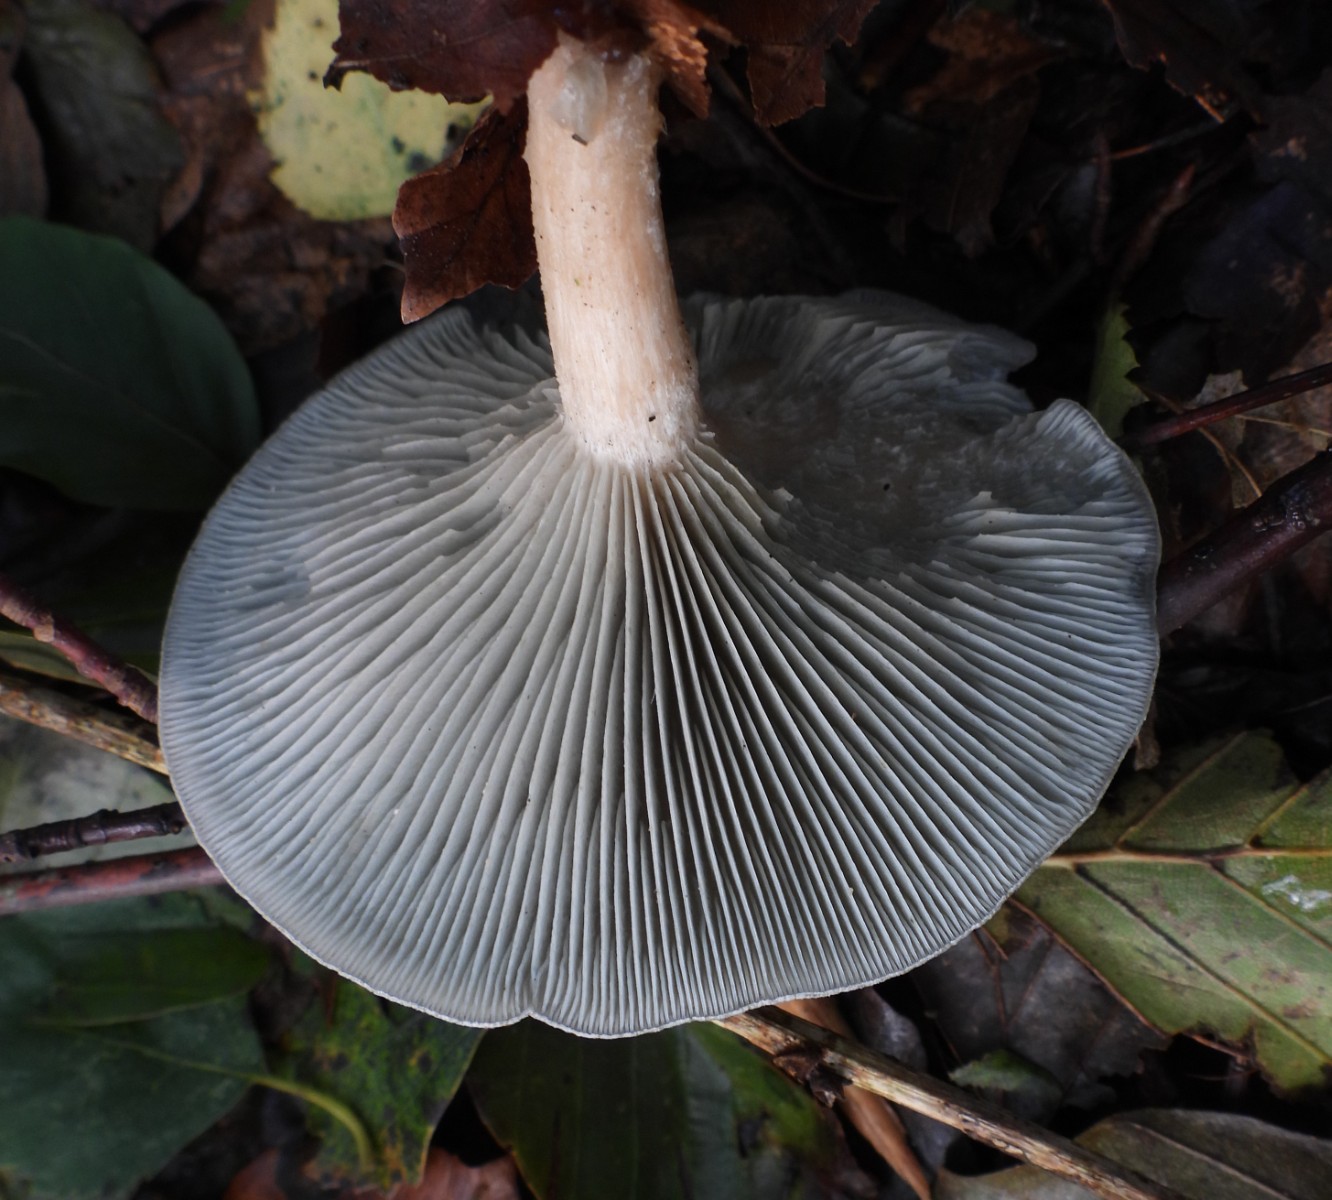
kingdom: Fungi
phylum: Basidiomycota
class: Agaricomycetes
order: Agaricales
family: Tricholomataceae
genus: Clitocybe
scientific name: Clitocybe odora
